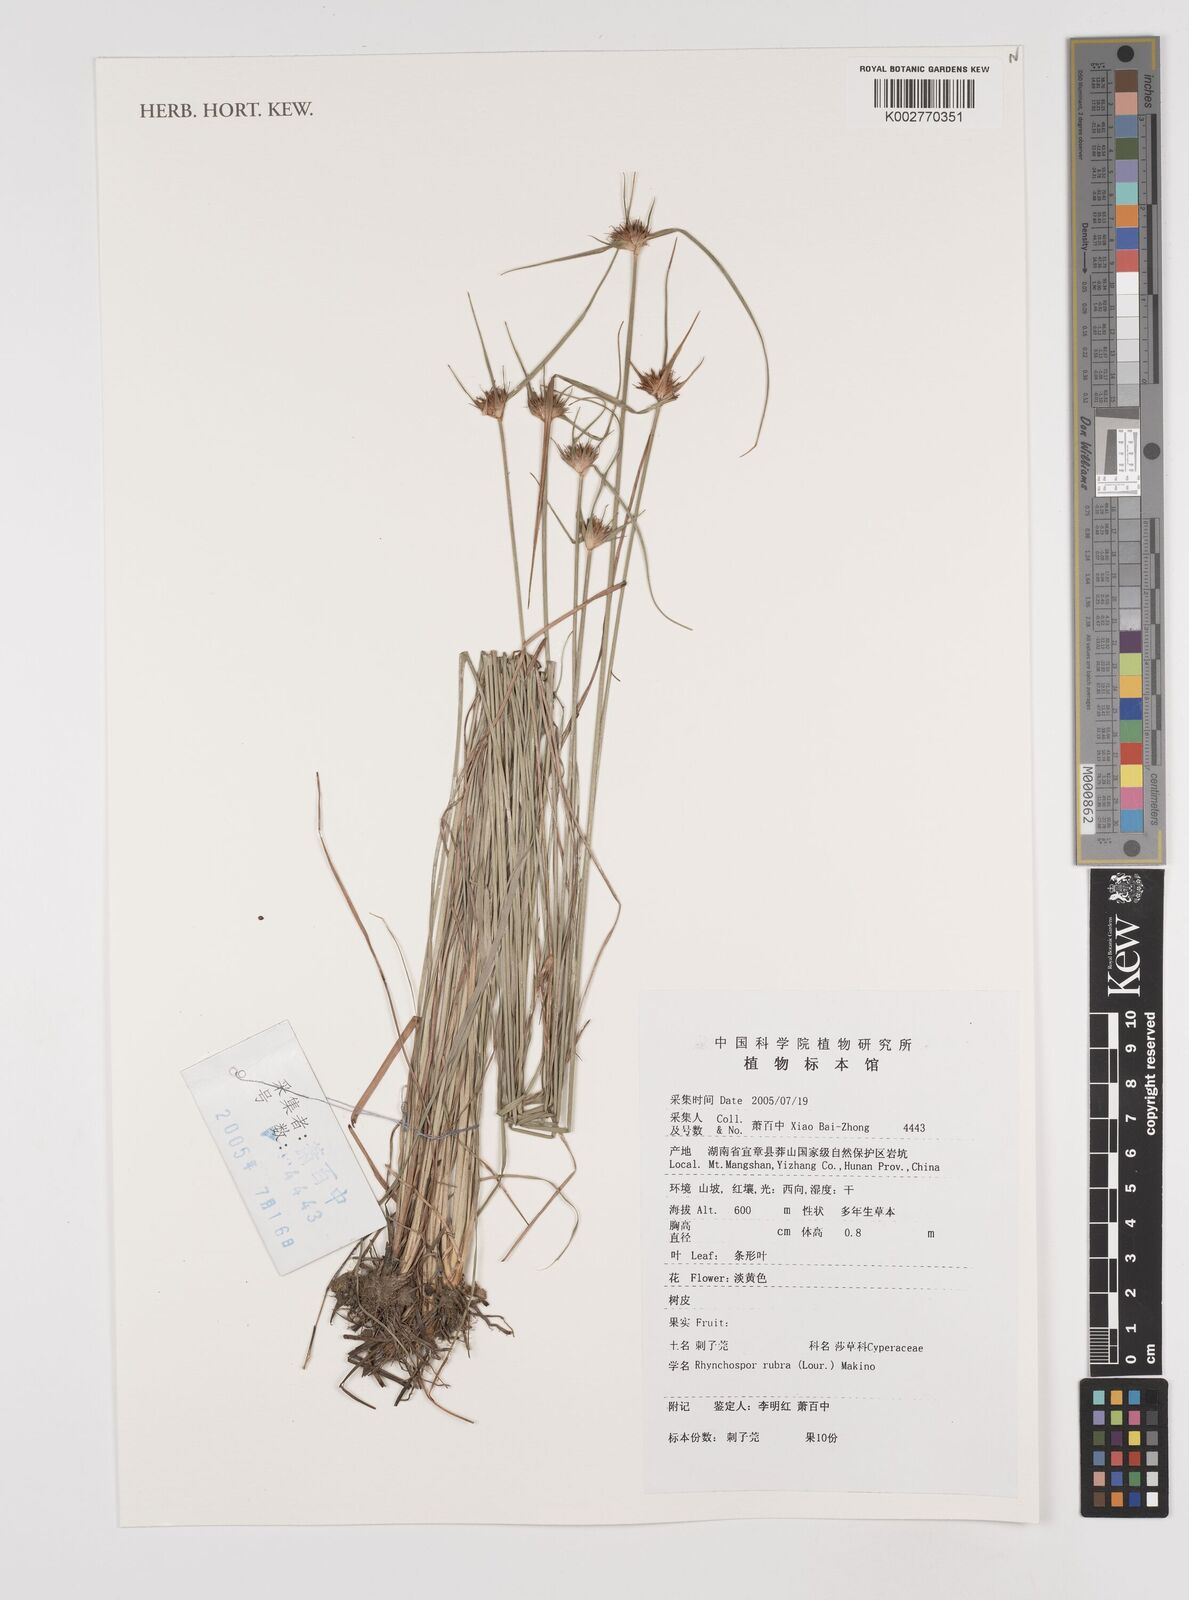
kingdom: Plantae
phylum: Tracheophyta
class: Liliopsida
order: Poales
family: Cyperaceae
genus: Rhynchospora
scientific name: Rhynchospora rubra
